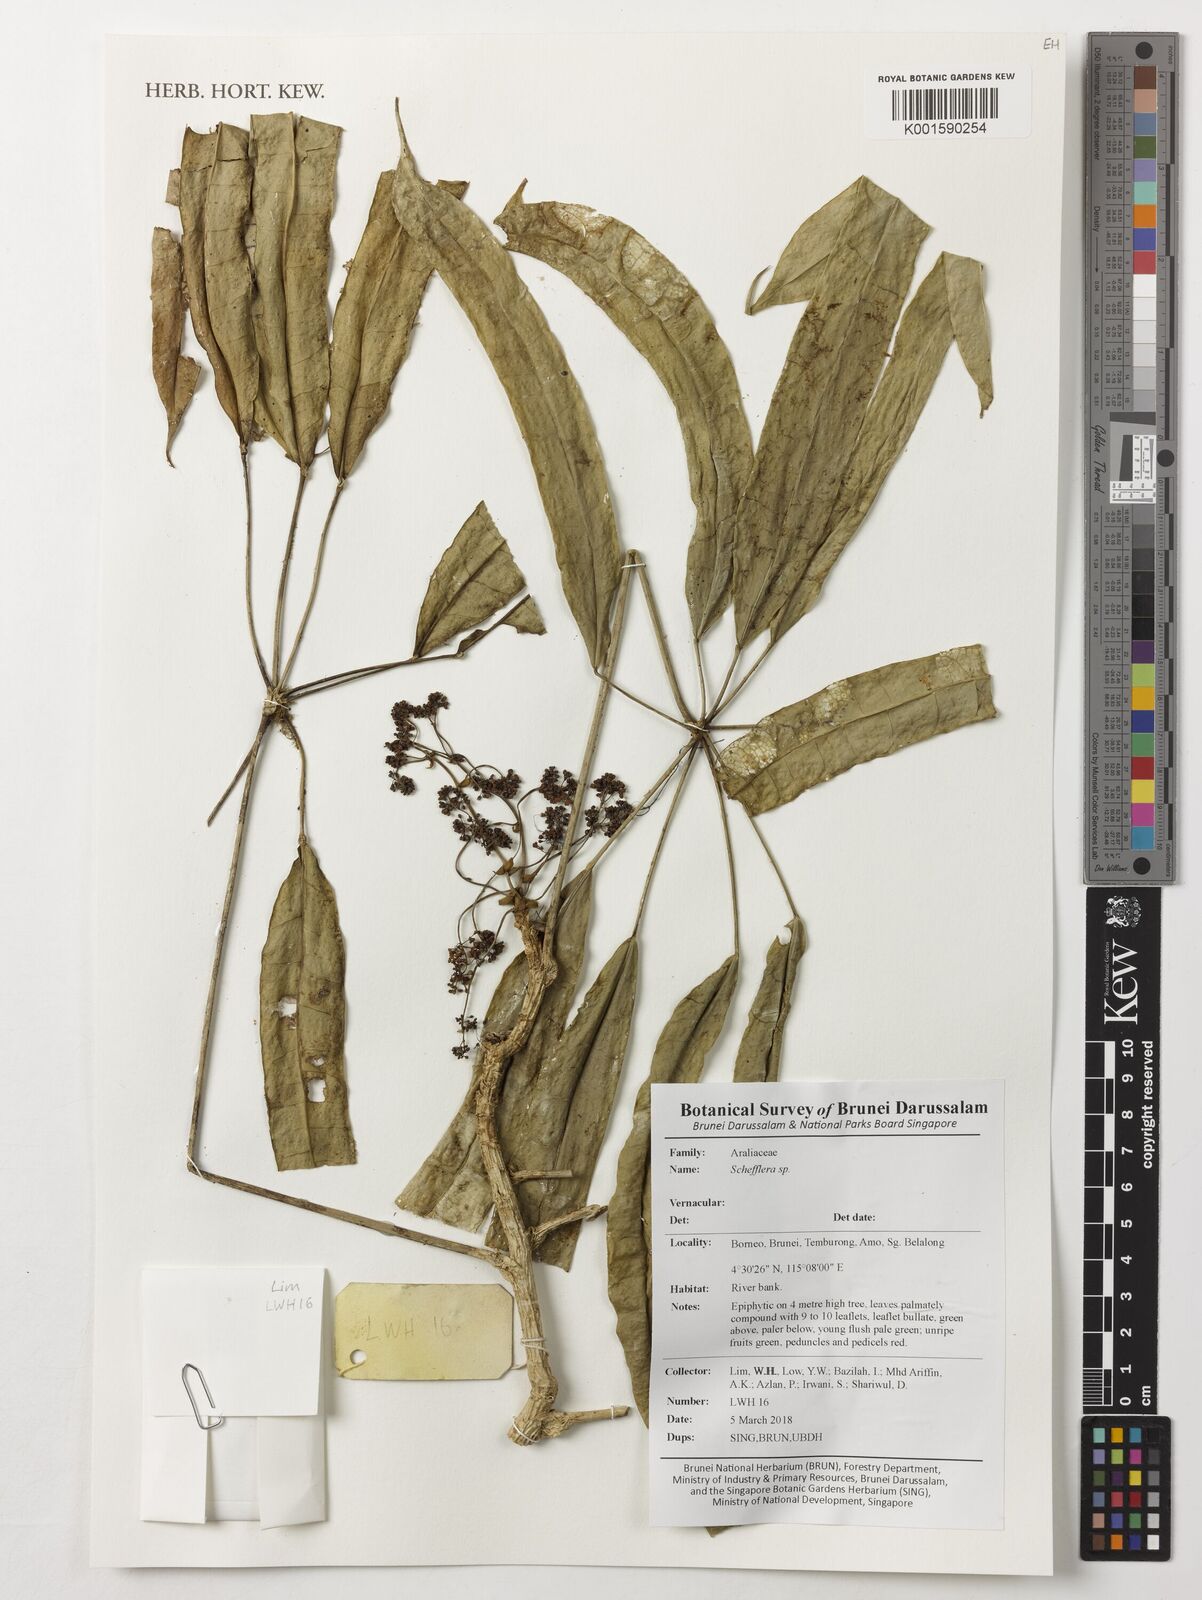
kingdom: Plantae
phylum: Tracheophyta
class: Magnoliopsida
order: Apiales
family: Araliaceae
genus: Schefflera
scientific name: Schefflera
